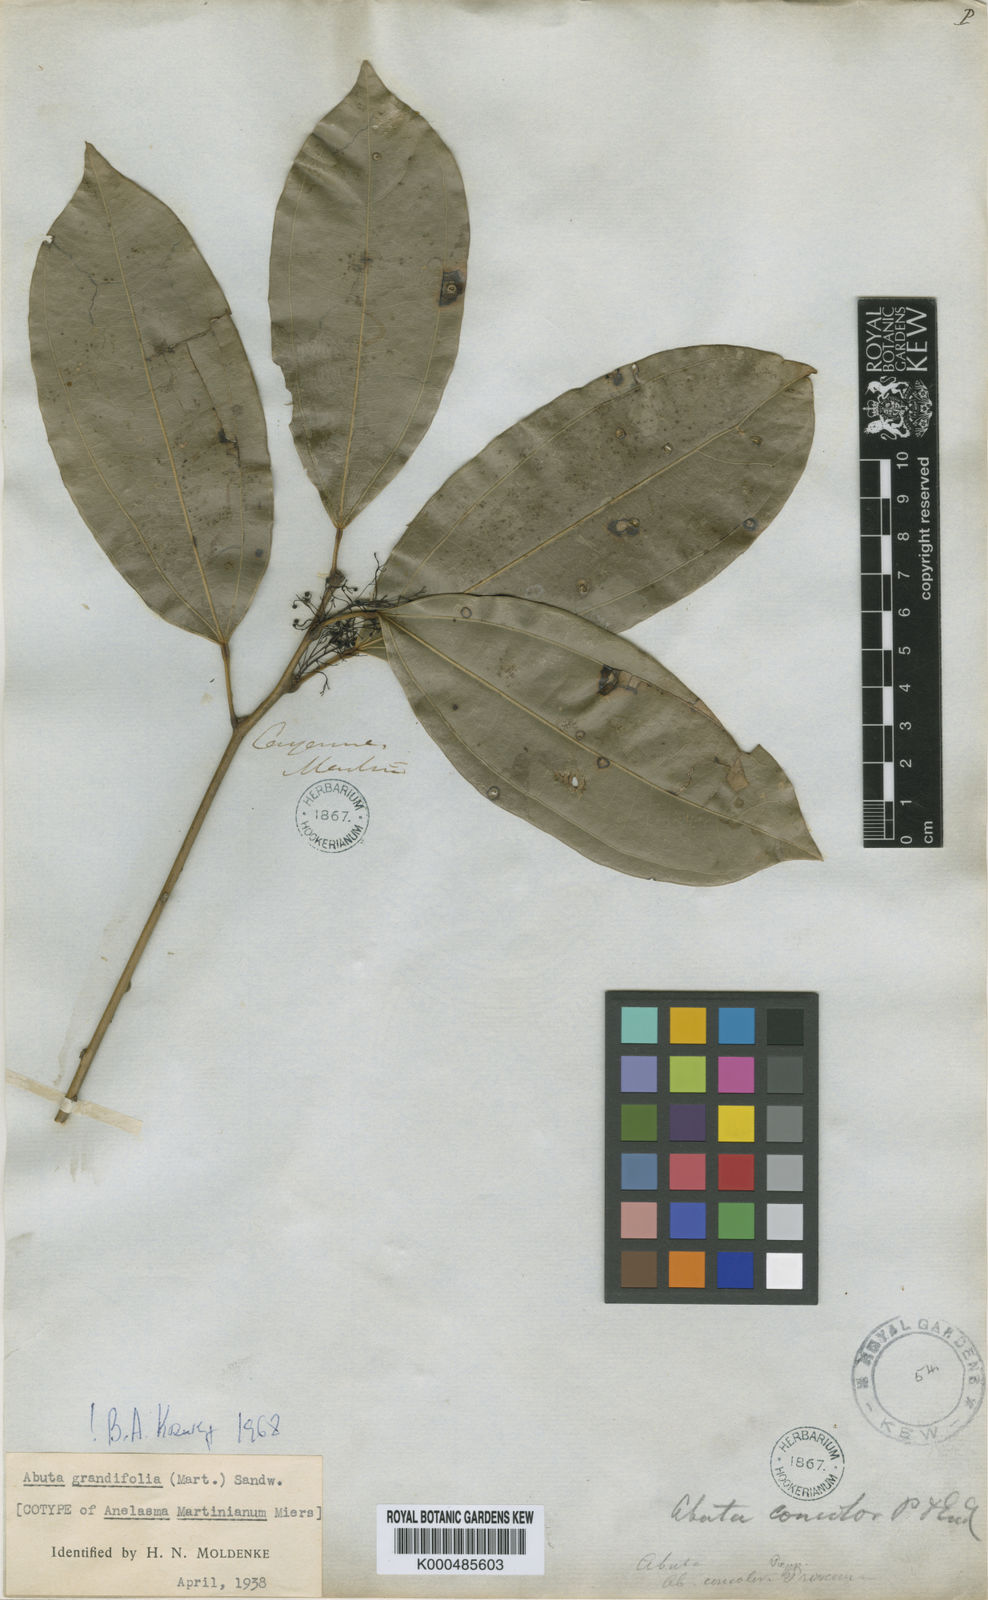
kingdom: Plantae
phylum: Tracheophyta
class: Magnoliopsida
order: Ranunculales
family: Menispermaceae
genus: Abuta
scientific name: Abuta grandifolia
